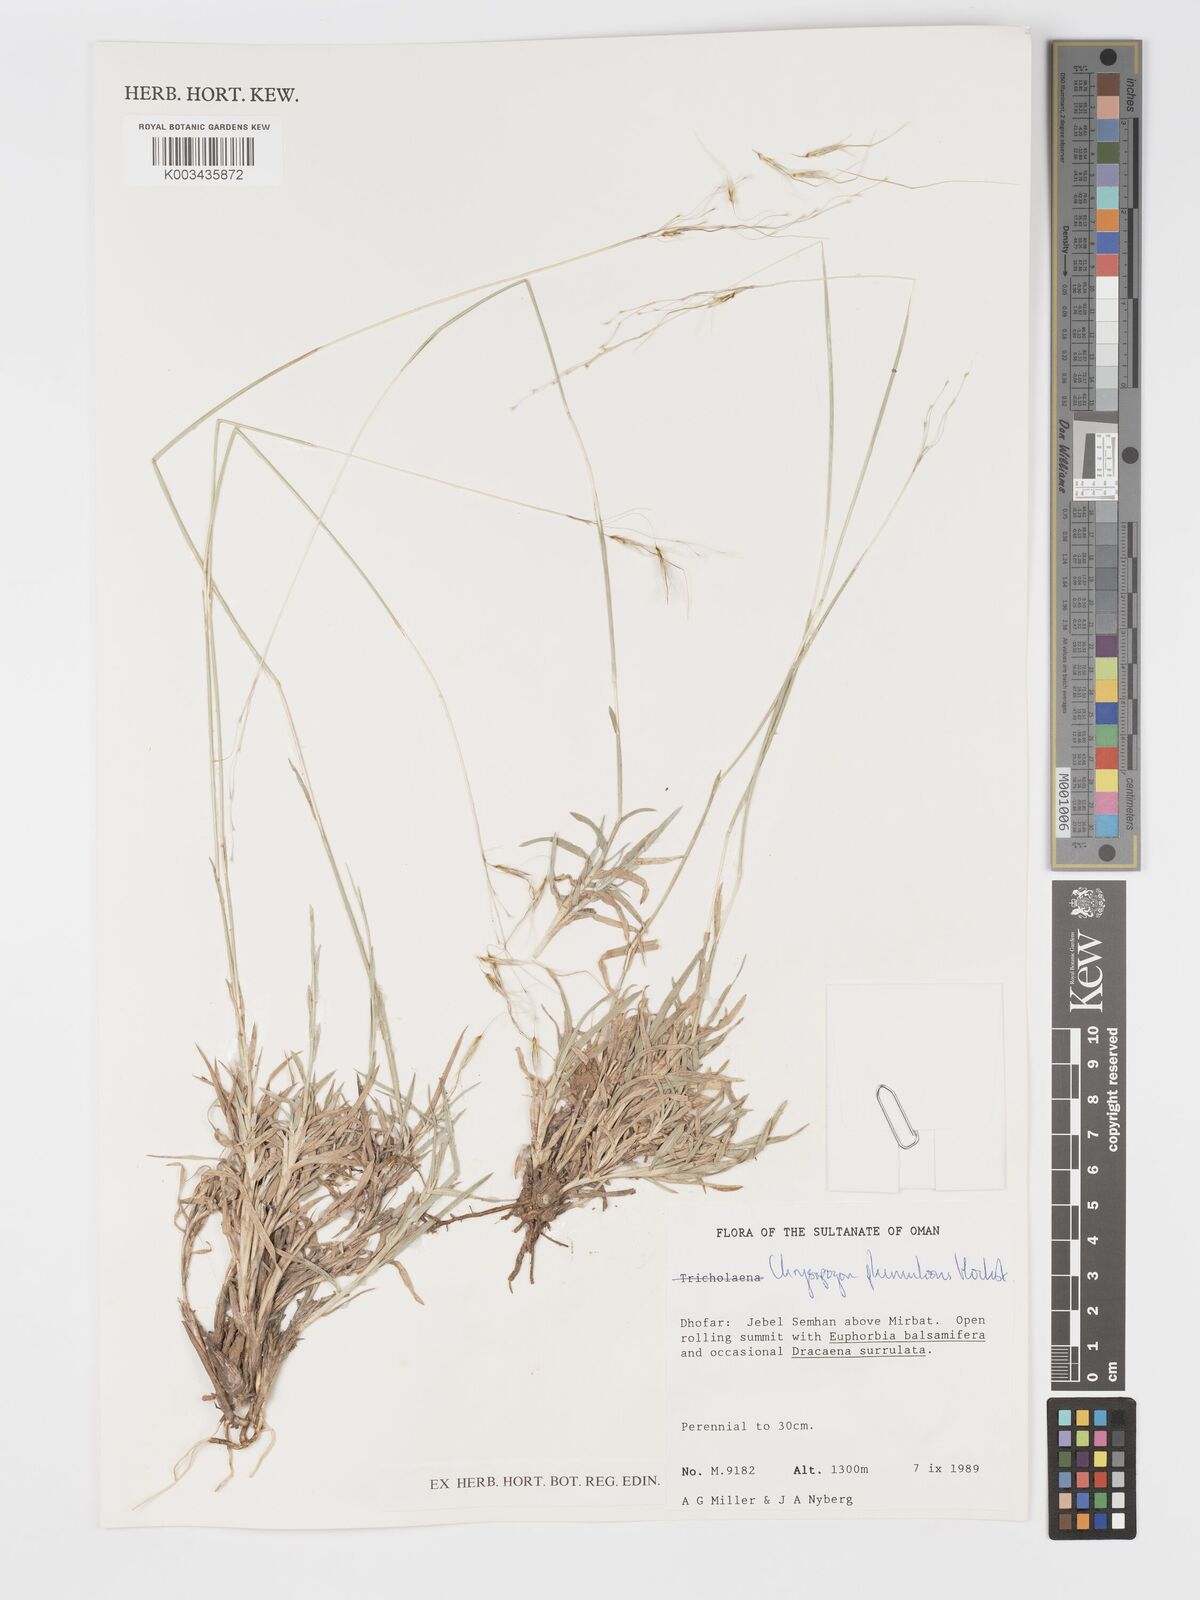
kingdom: Plantae
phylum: Tracheophyta
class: Liliopsida
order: Poales
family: Poaceae
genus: Chrysopogon
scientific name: Chrysopogon plumulosus
